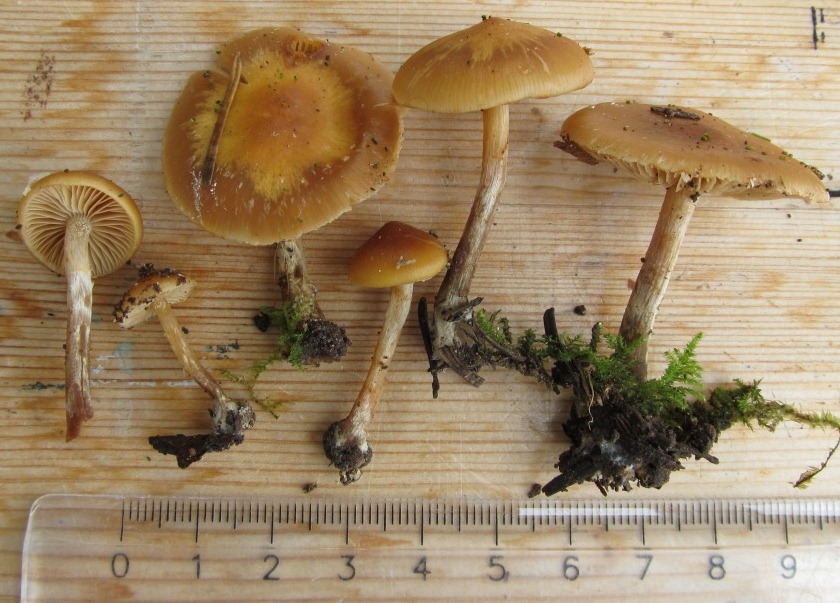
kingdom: Fungi
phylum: Basidiomycota
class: Agaricomycetes
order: Agaricales
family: Hymenogastraceae
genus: Galerina
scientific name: Galerina sideroides
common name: træflis-hjelmhat
